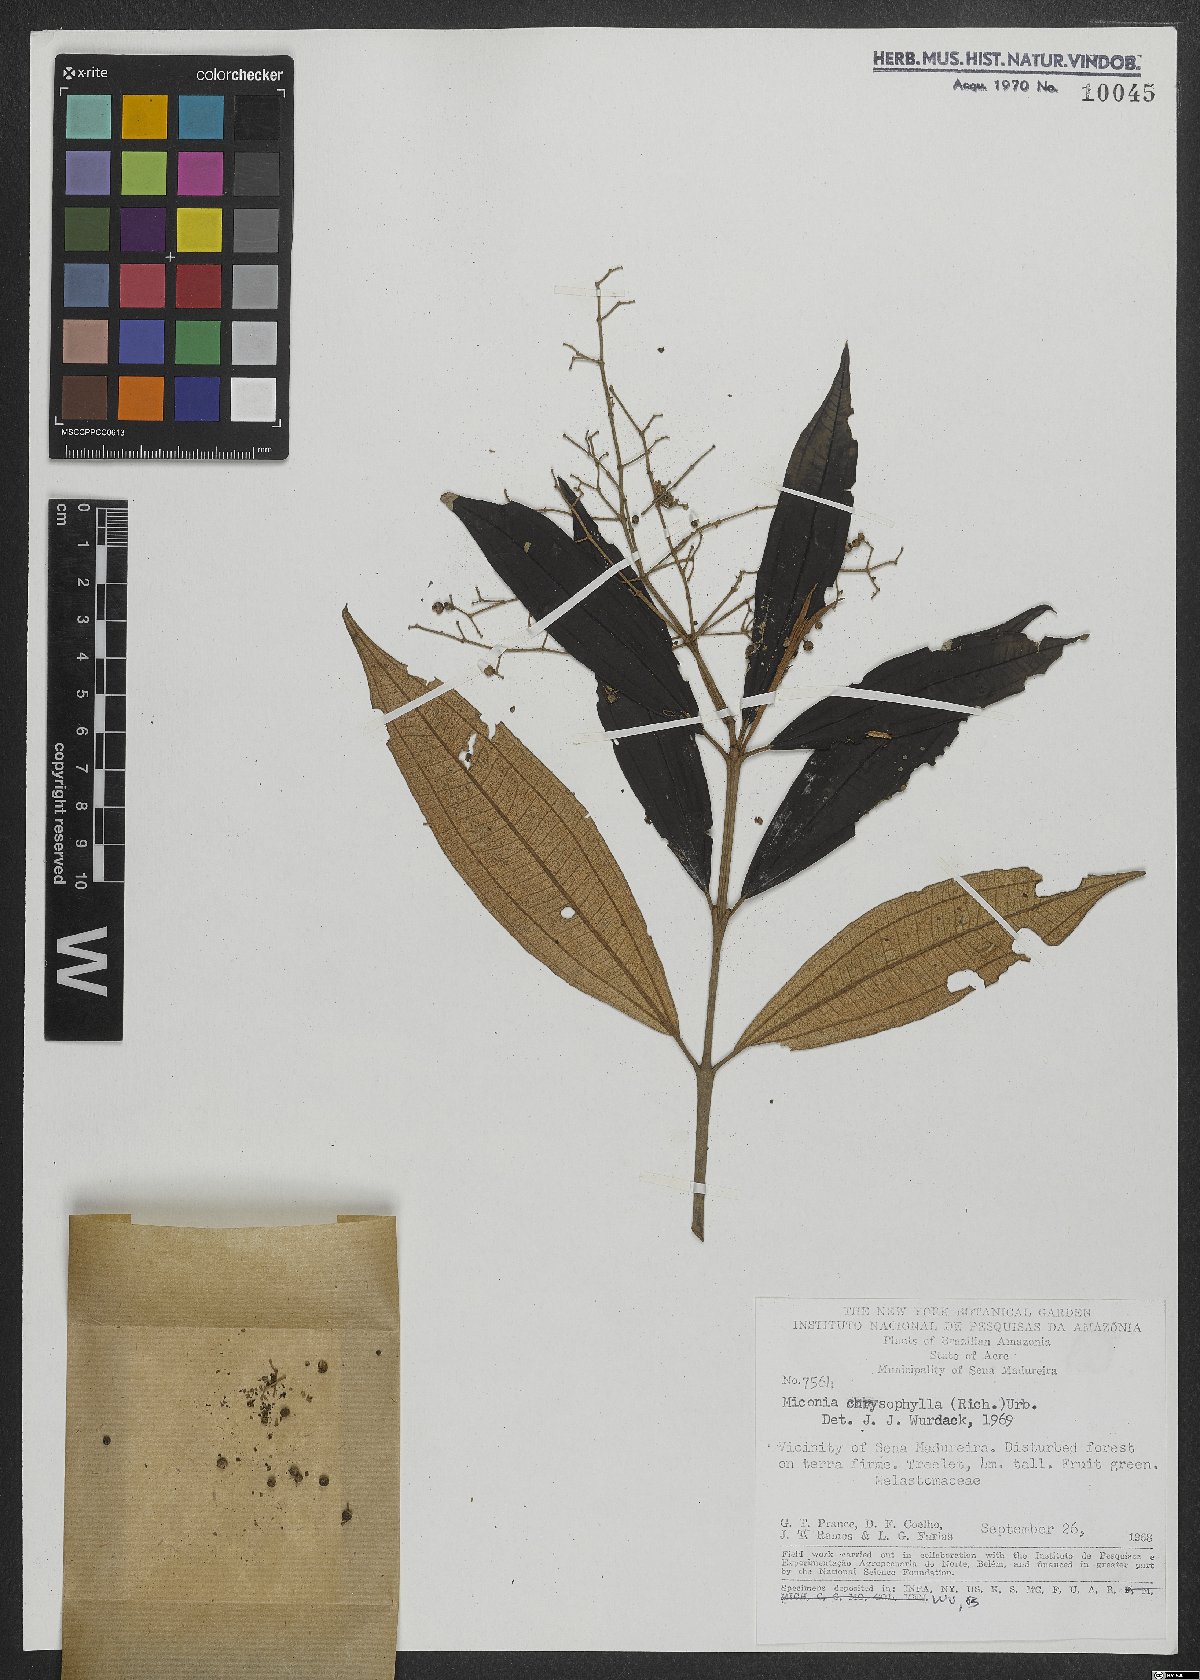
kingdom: Plantae
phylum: Tracheophyta
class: Magnoliopsida
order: Myrtales
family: Melastomataceae
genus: Miconia
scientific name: Miconia chrysophylla
